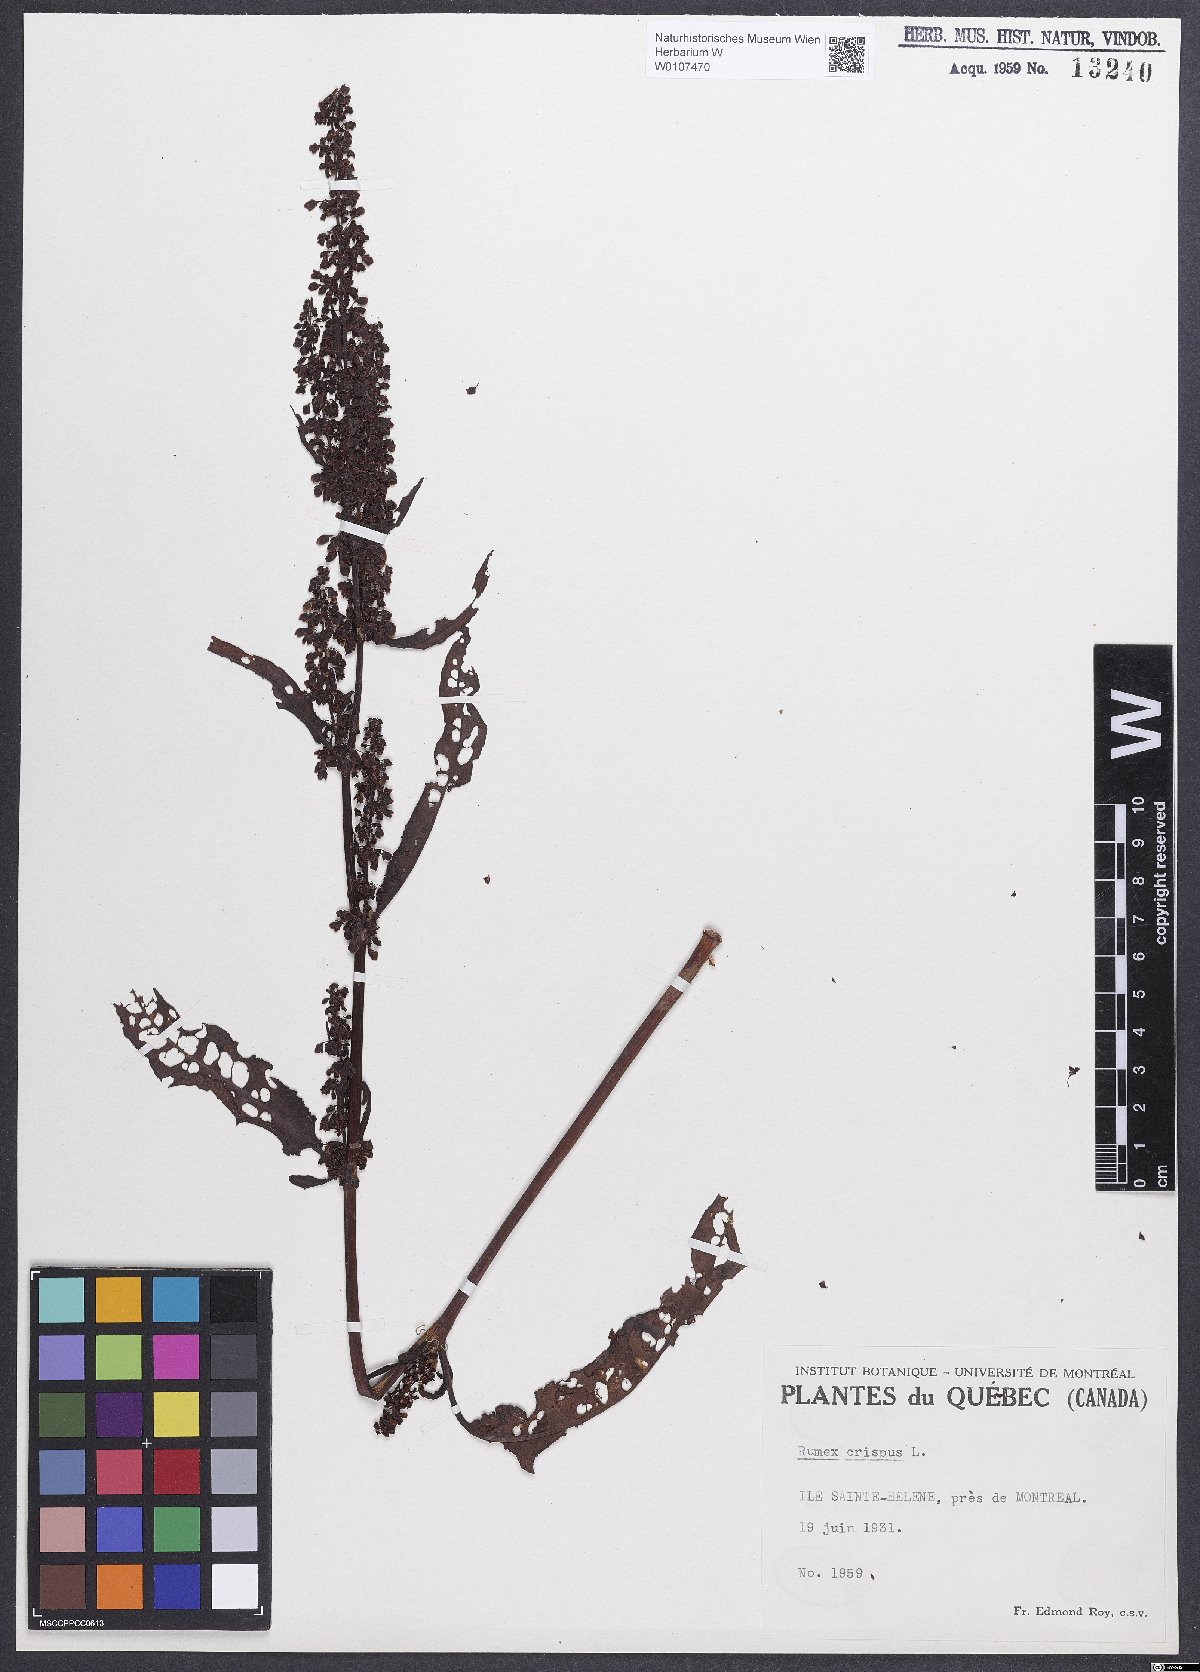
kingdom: Plantae
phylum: Tracheophyta
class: Magnoliopsida
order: Caryophyllales
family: Polygonaceae
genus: Rumex
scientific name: Rumex crispus
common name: Curled dock
